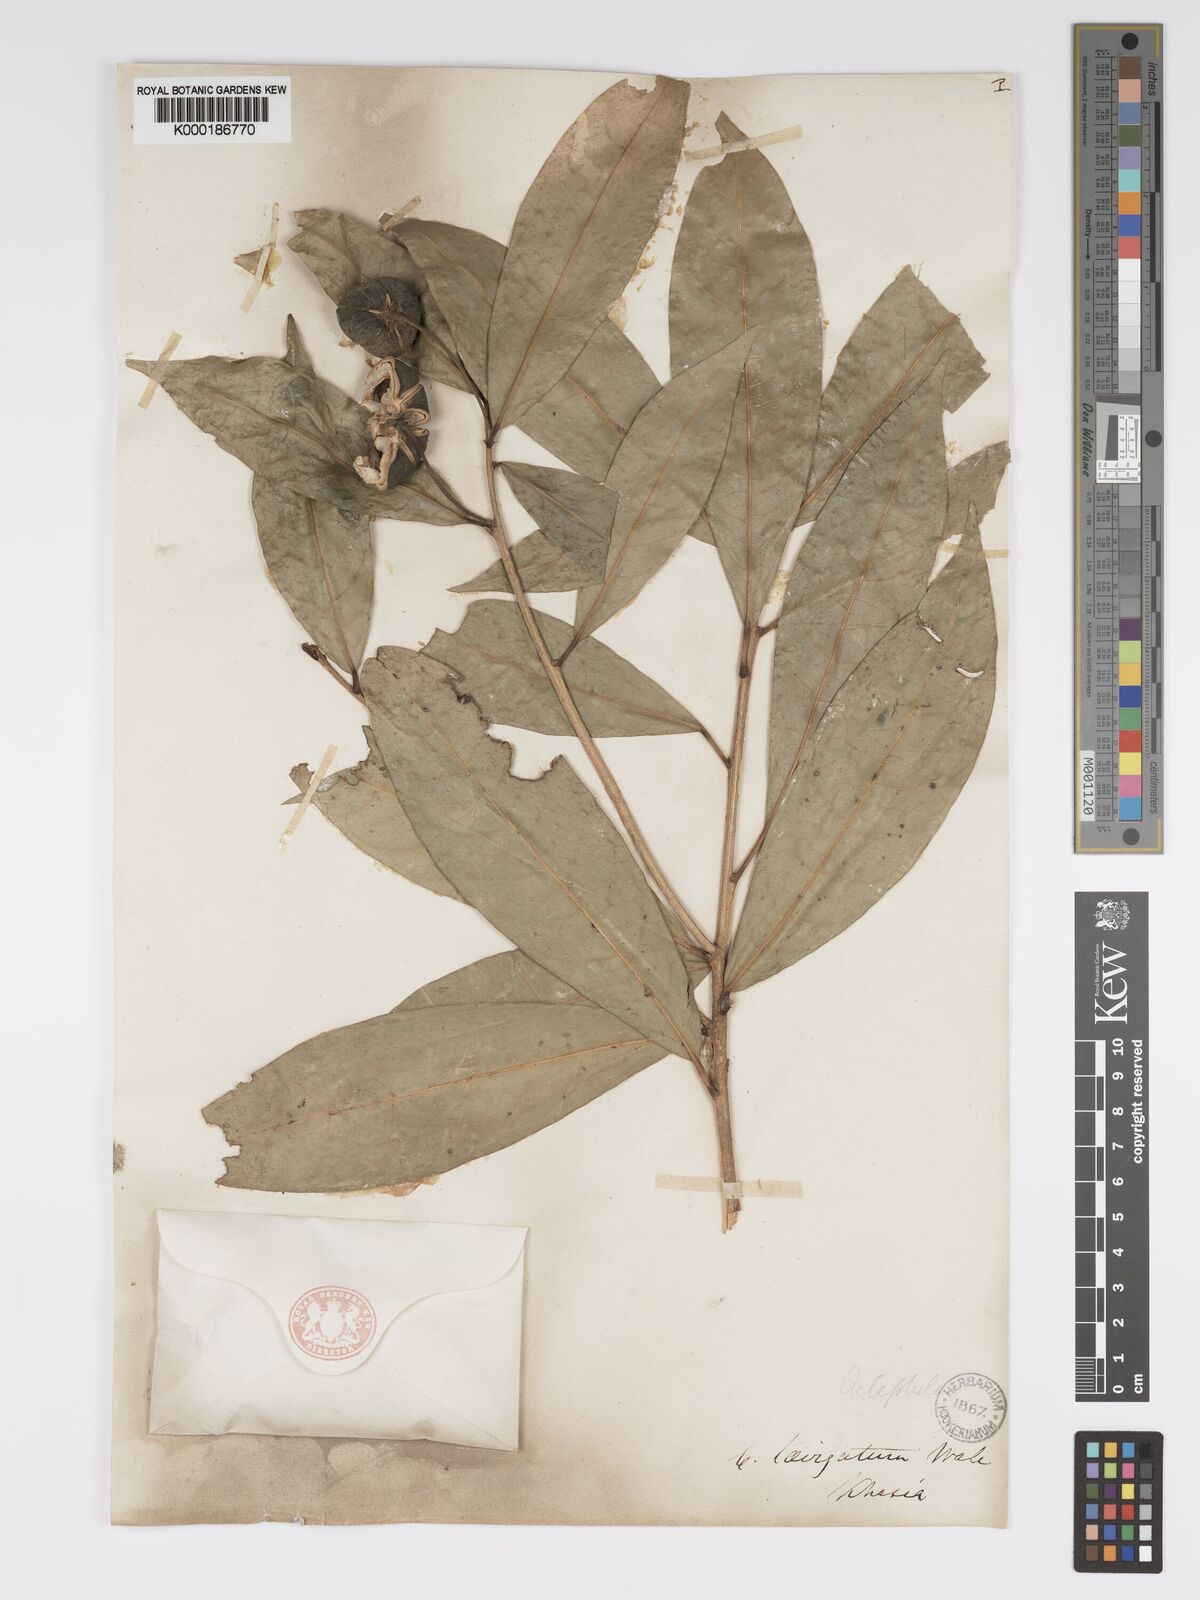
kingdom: Plantae
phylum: Tracheophyta
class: Magnoliopsida
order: Malpighiales
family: Phyllanthaceae
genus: Actephila
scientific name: Actephila excelsa
